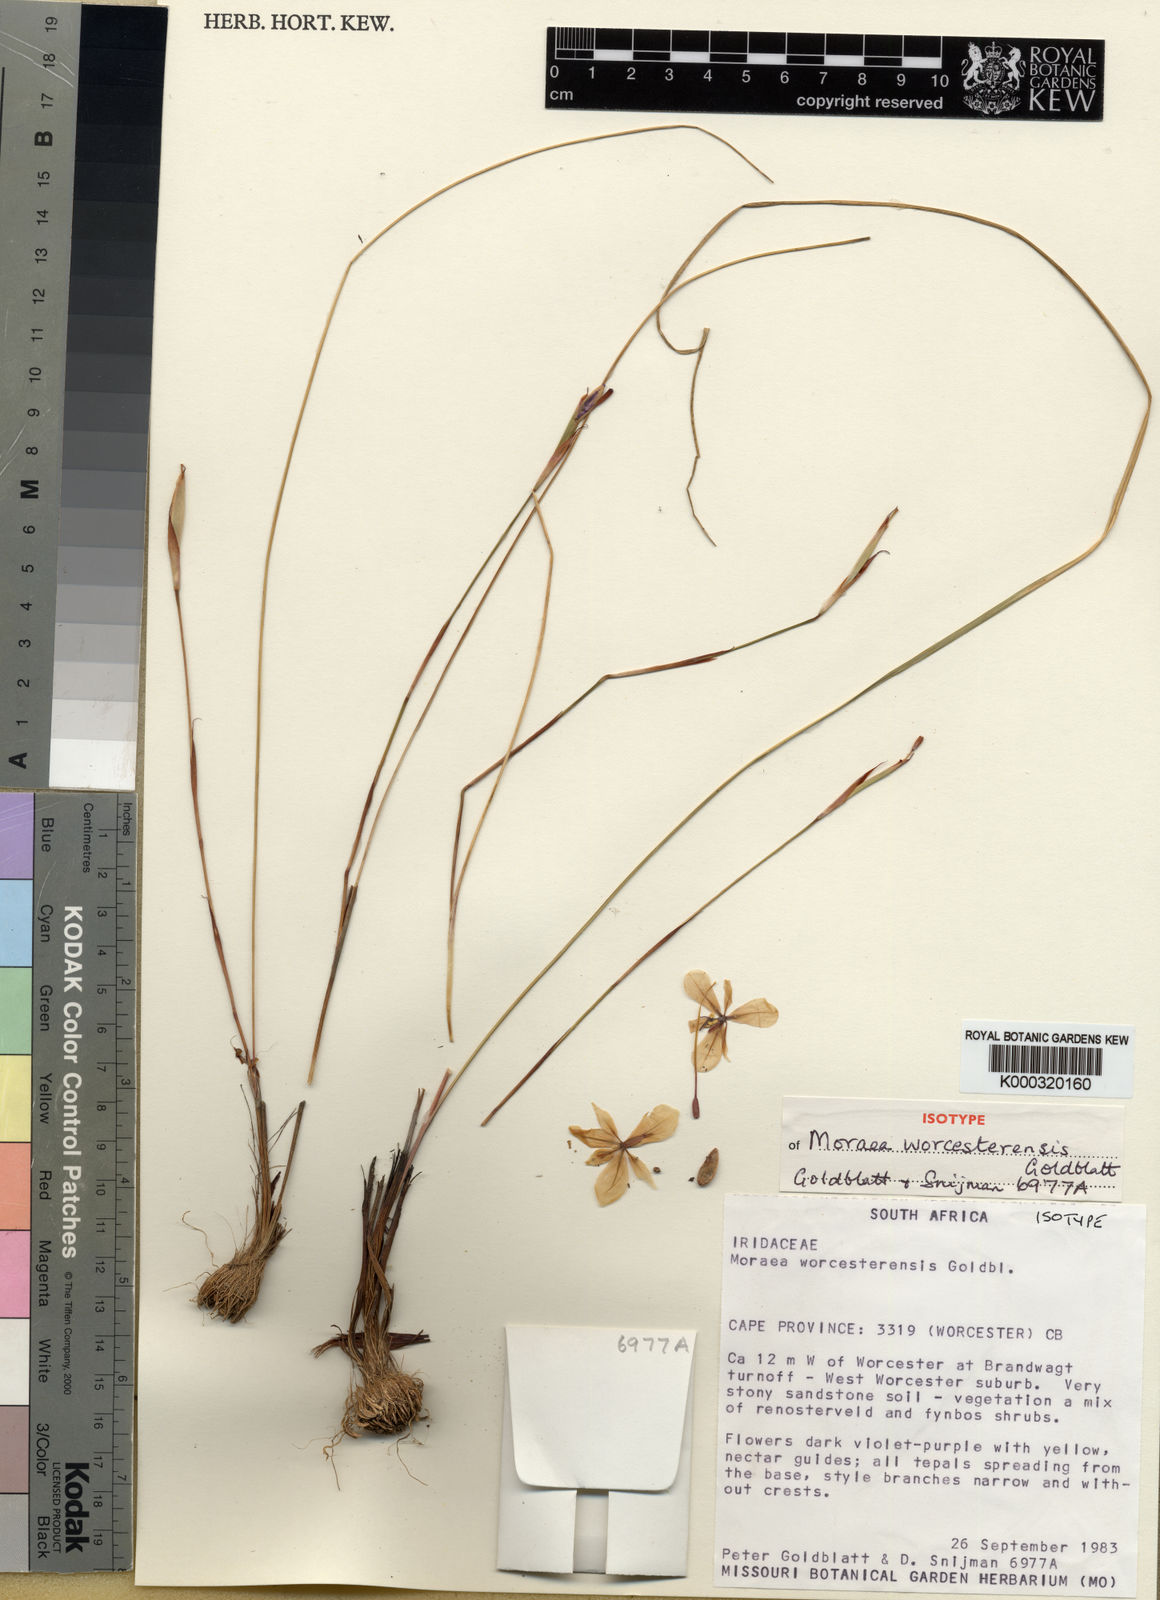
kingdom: Plantae
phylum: Tracheophyta
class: Liliopsida
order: Asparagales
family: Iridaceae
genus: Moraea
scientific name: Moraea worcesterensis
